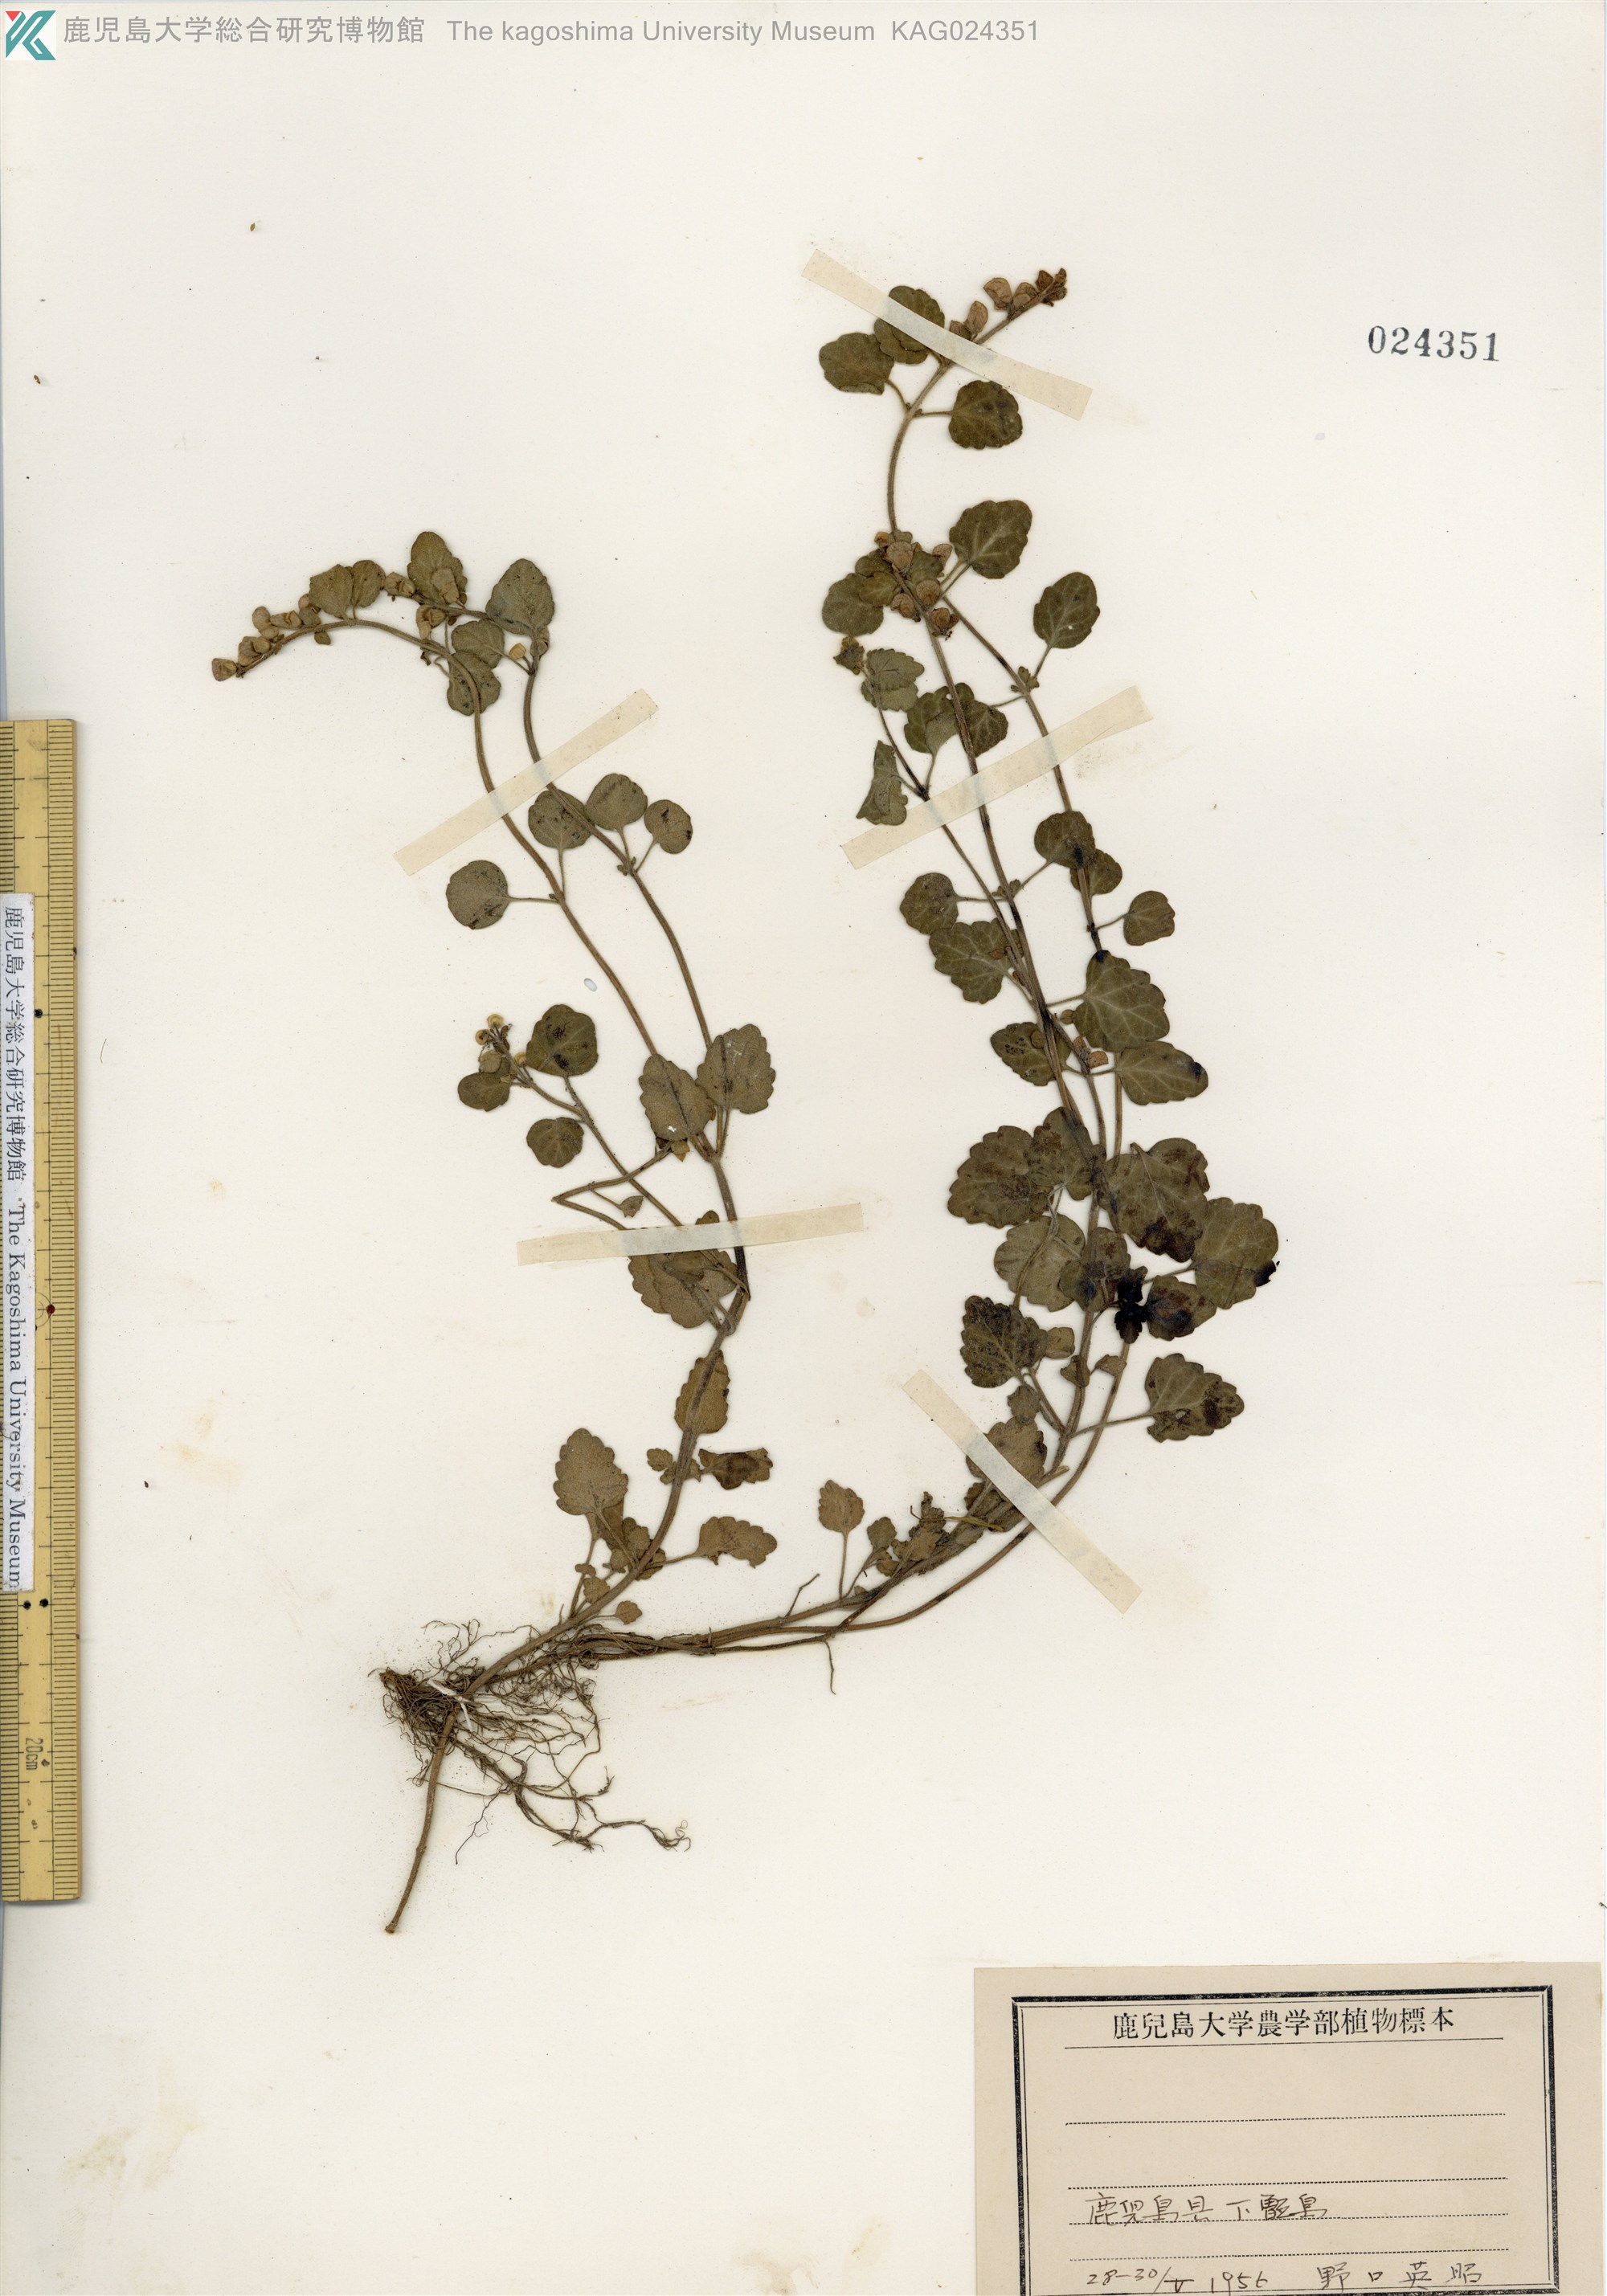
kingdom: Plantae
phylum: Tracheophyta
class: Magnoliopsida
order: Lamiales
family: Lamiaceae
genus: Scutellaria
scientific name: Scutellaria indica
